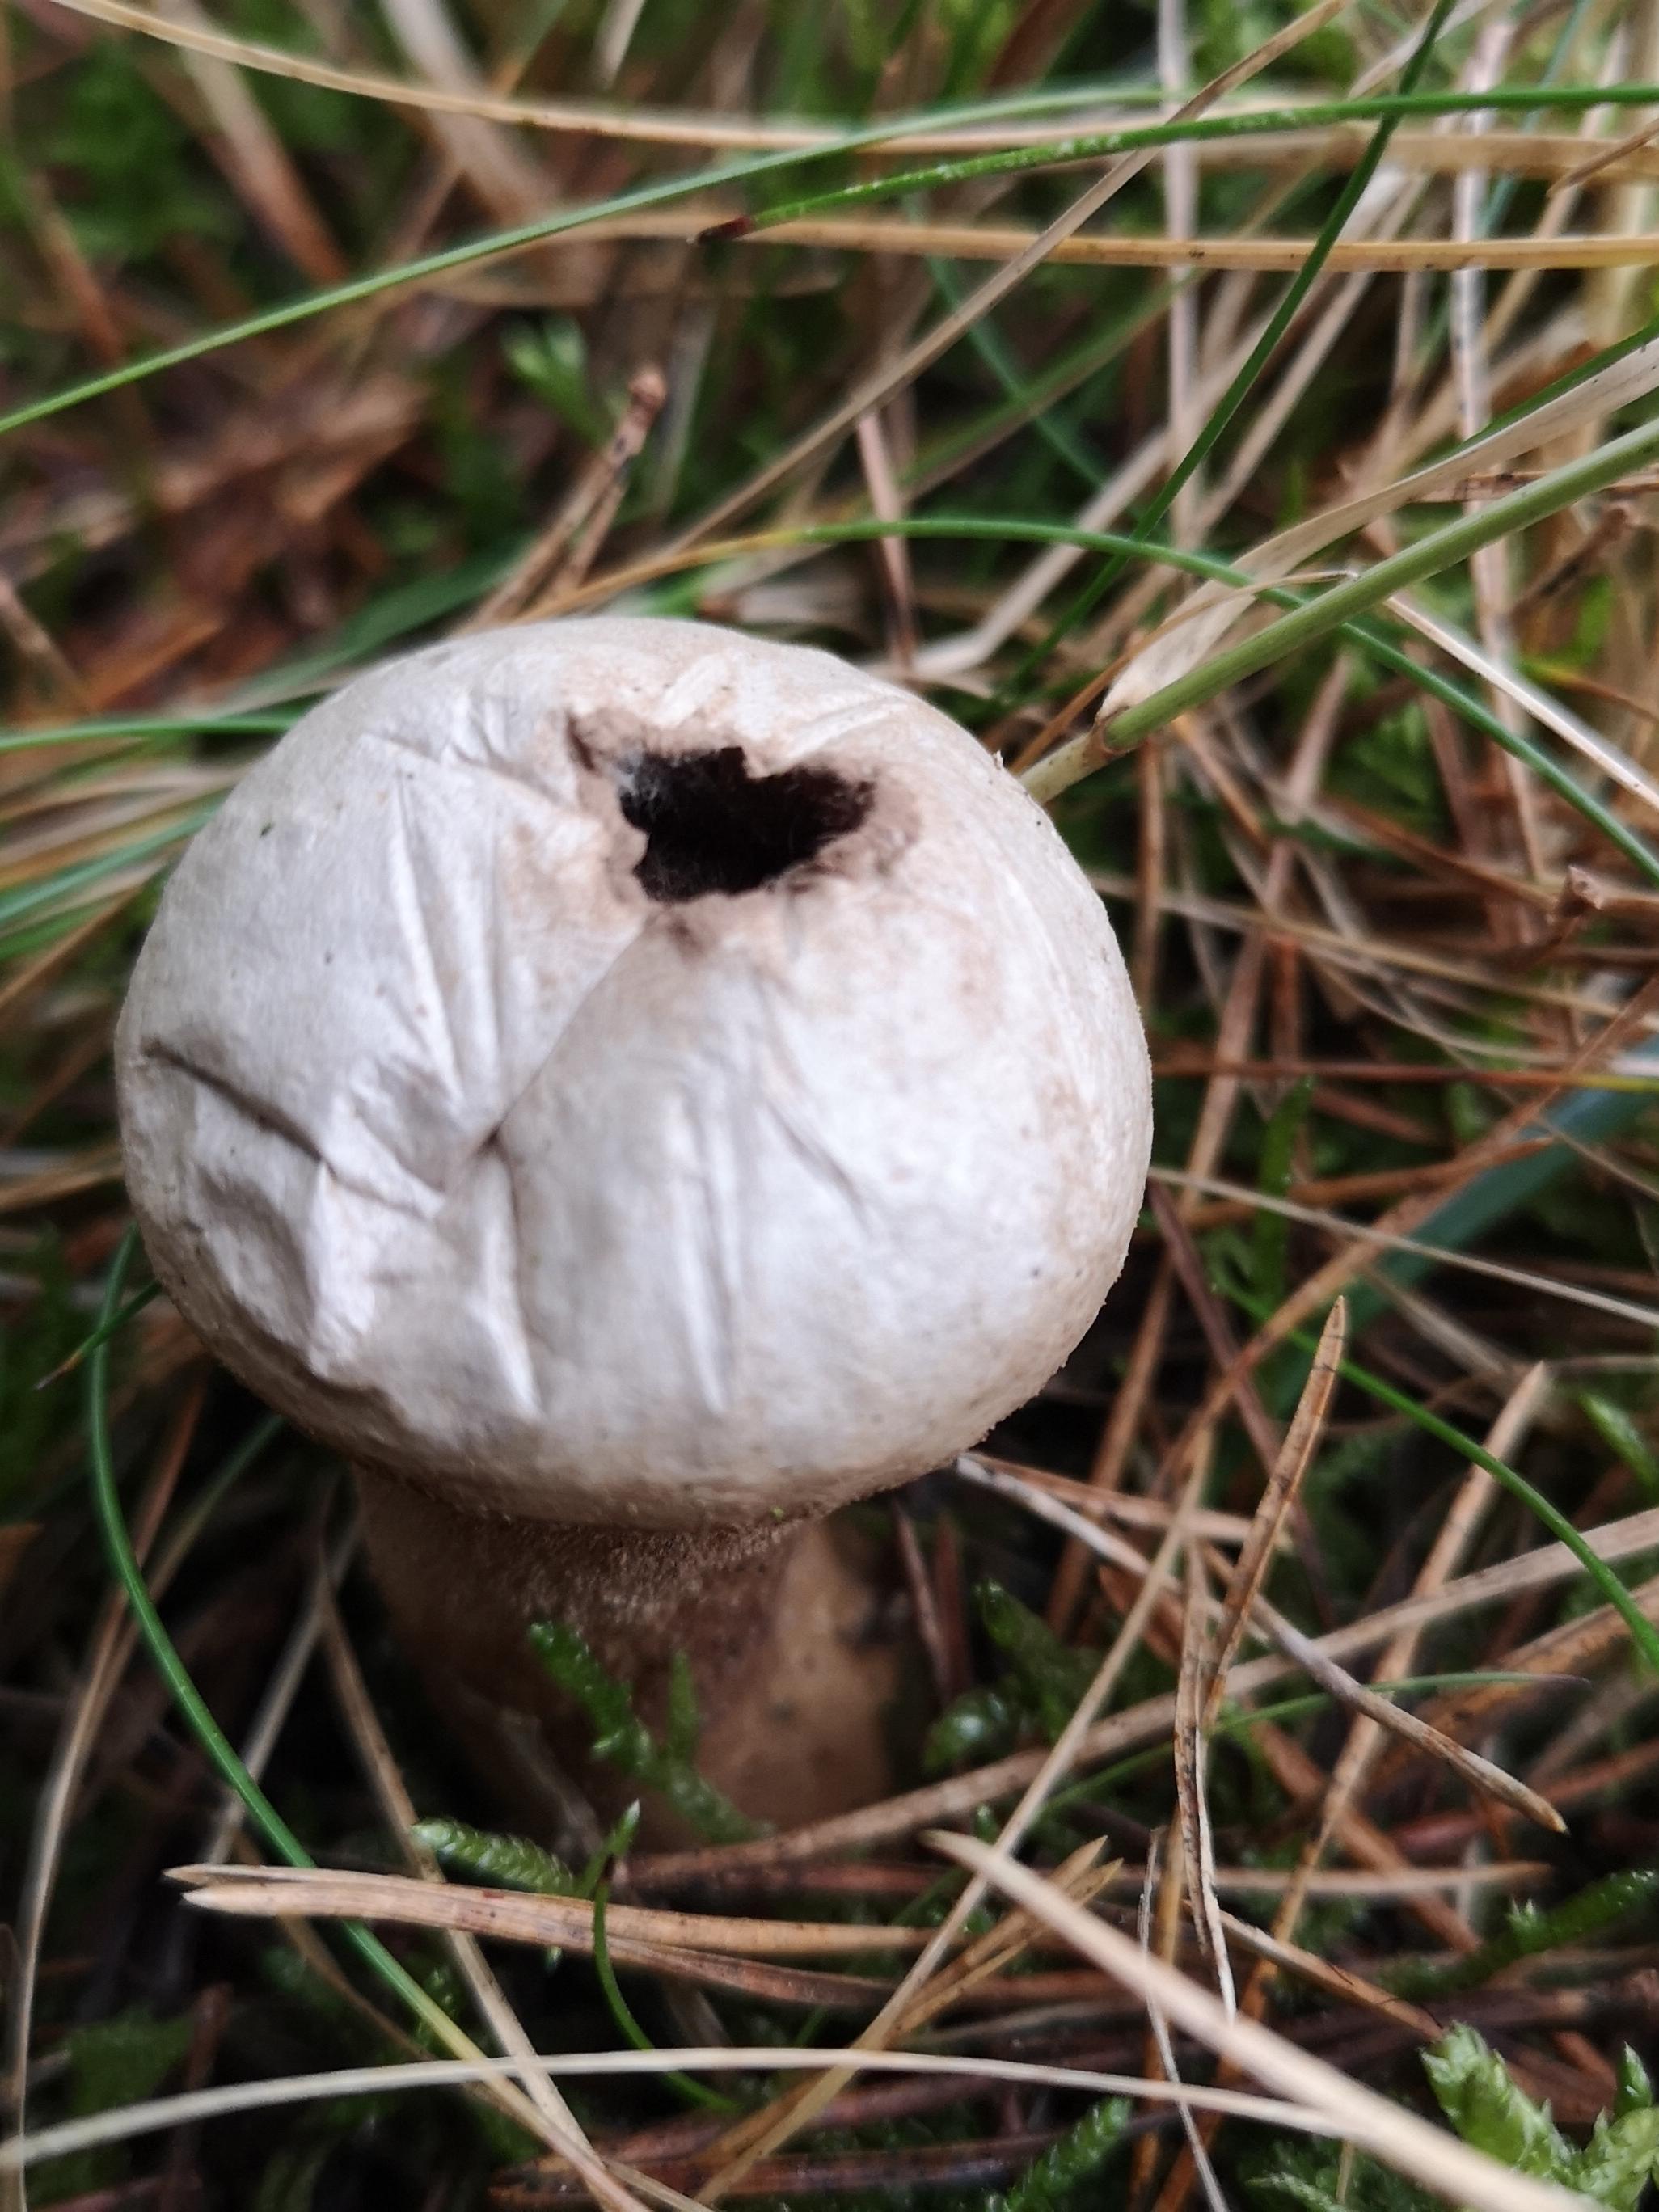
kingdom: Fungi
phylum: Basidiomycota
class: Agaricomycetes
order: Agaricales
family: Lycoperdaceae
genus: Lycoperdon
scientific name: Lycoperdon lividum
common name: mark-støvbold
